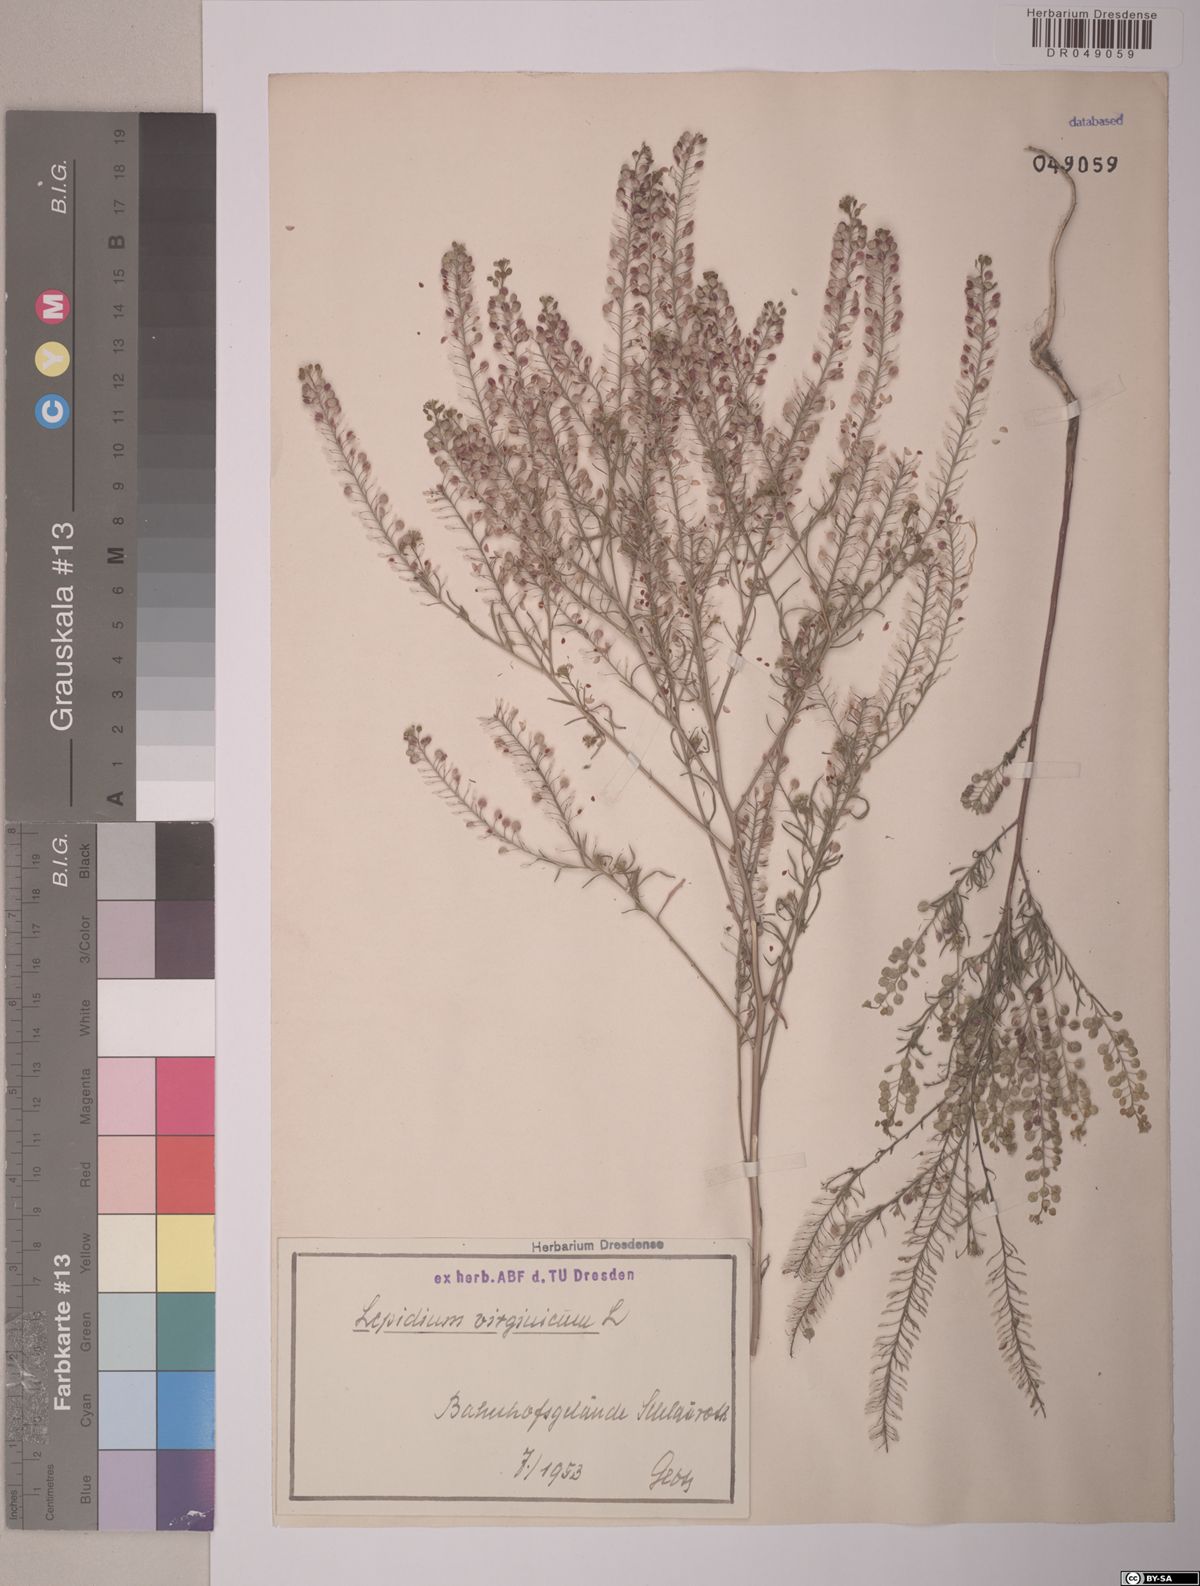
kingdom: Plantae
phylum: Tracheophyta
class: Magnoliopsida
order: Brassicales
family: Brassicaceae
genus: Lepidium
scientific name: Lepidium virginicum
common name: Least pepperwort
